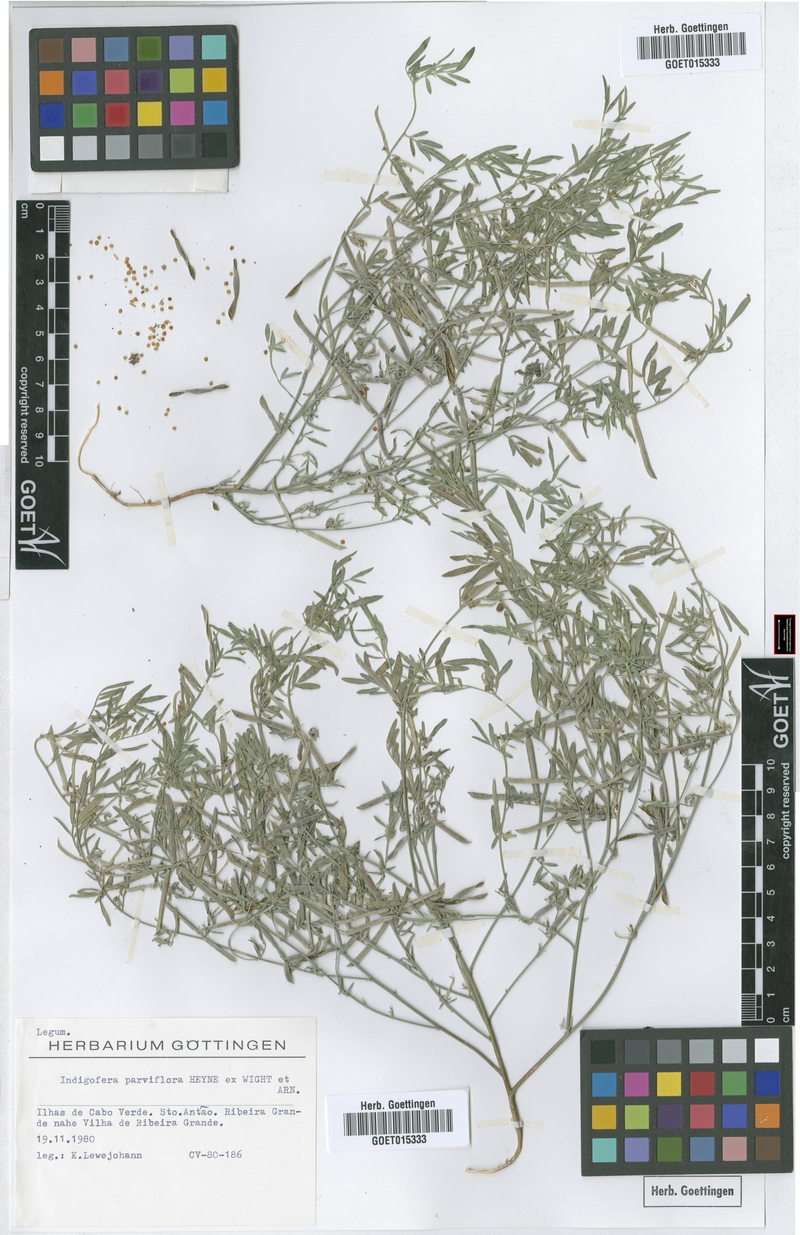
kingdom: Plantae
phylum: Tracheophyta
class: Magnoliopsida
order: Fabales
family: Fabaceae
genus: Indigastrum
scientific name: Indigastrum parviflorum
